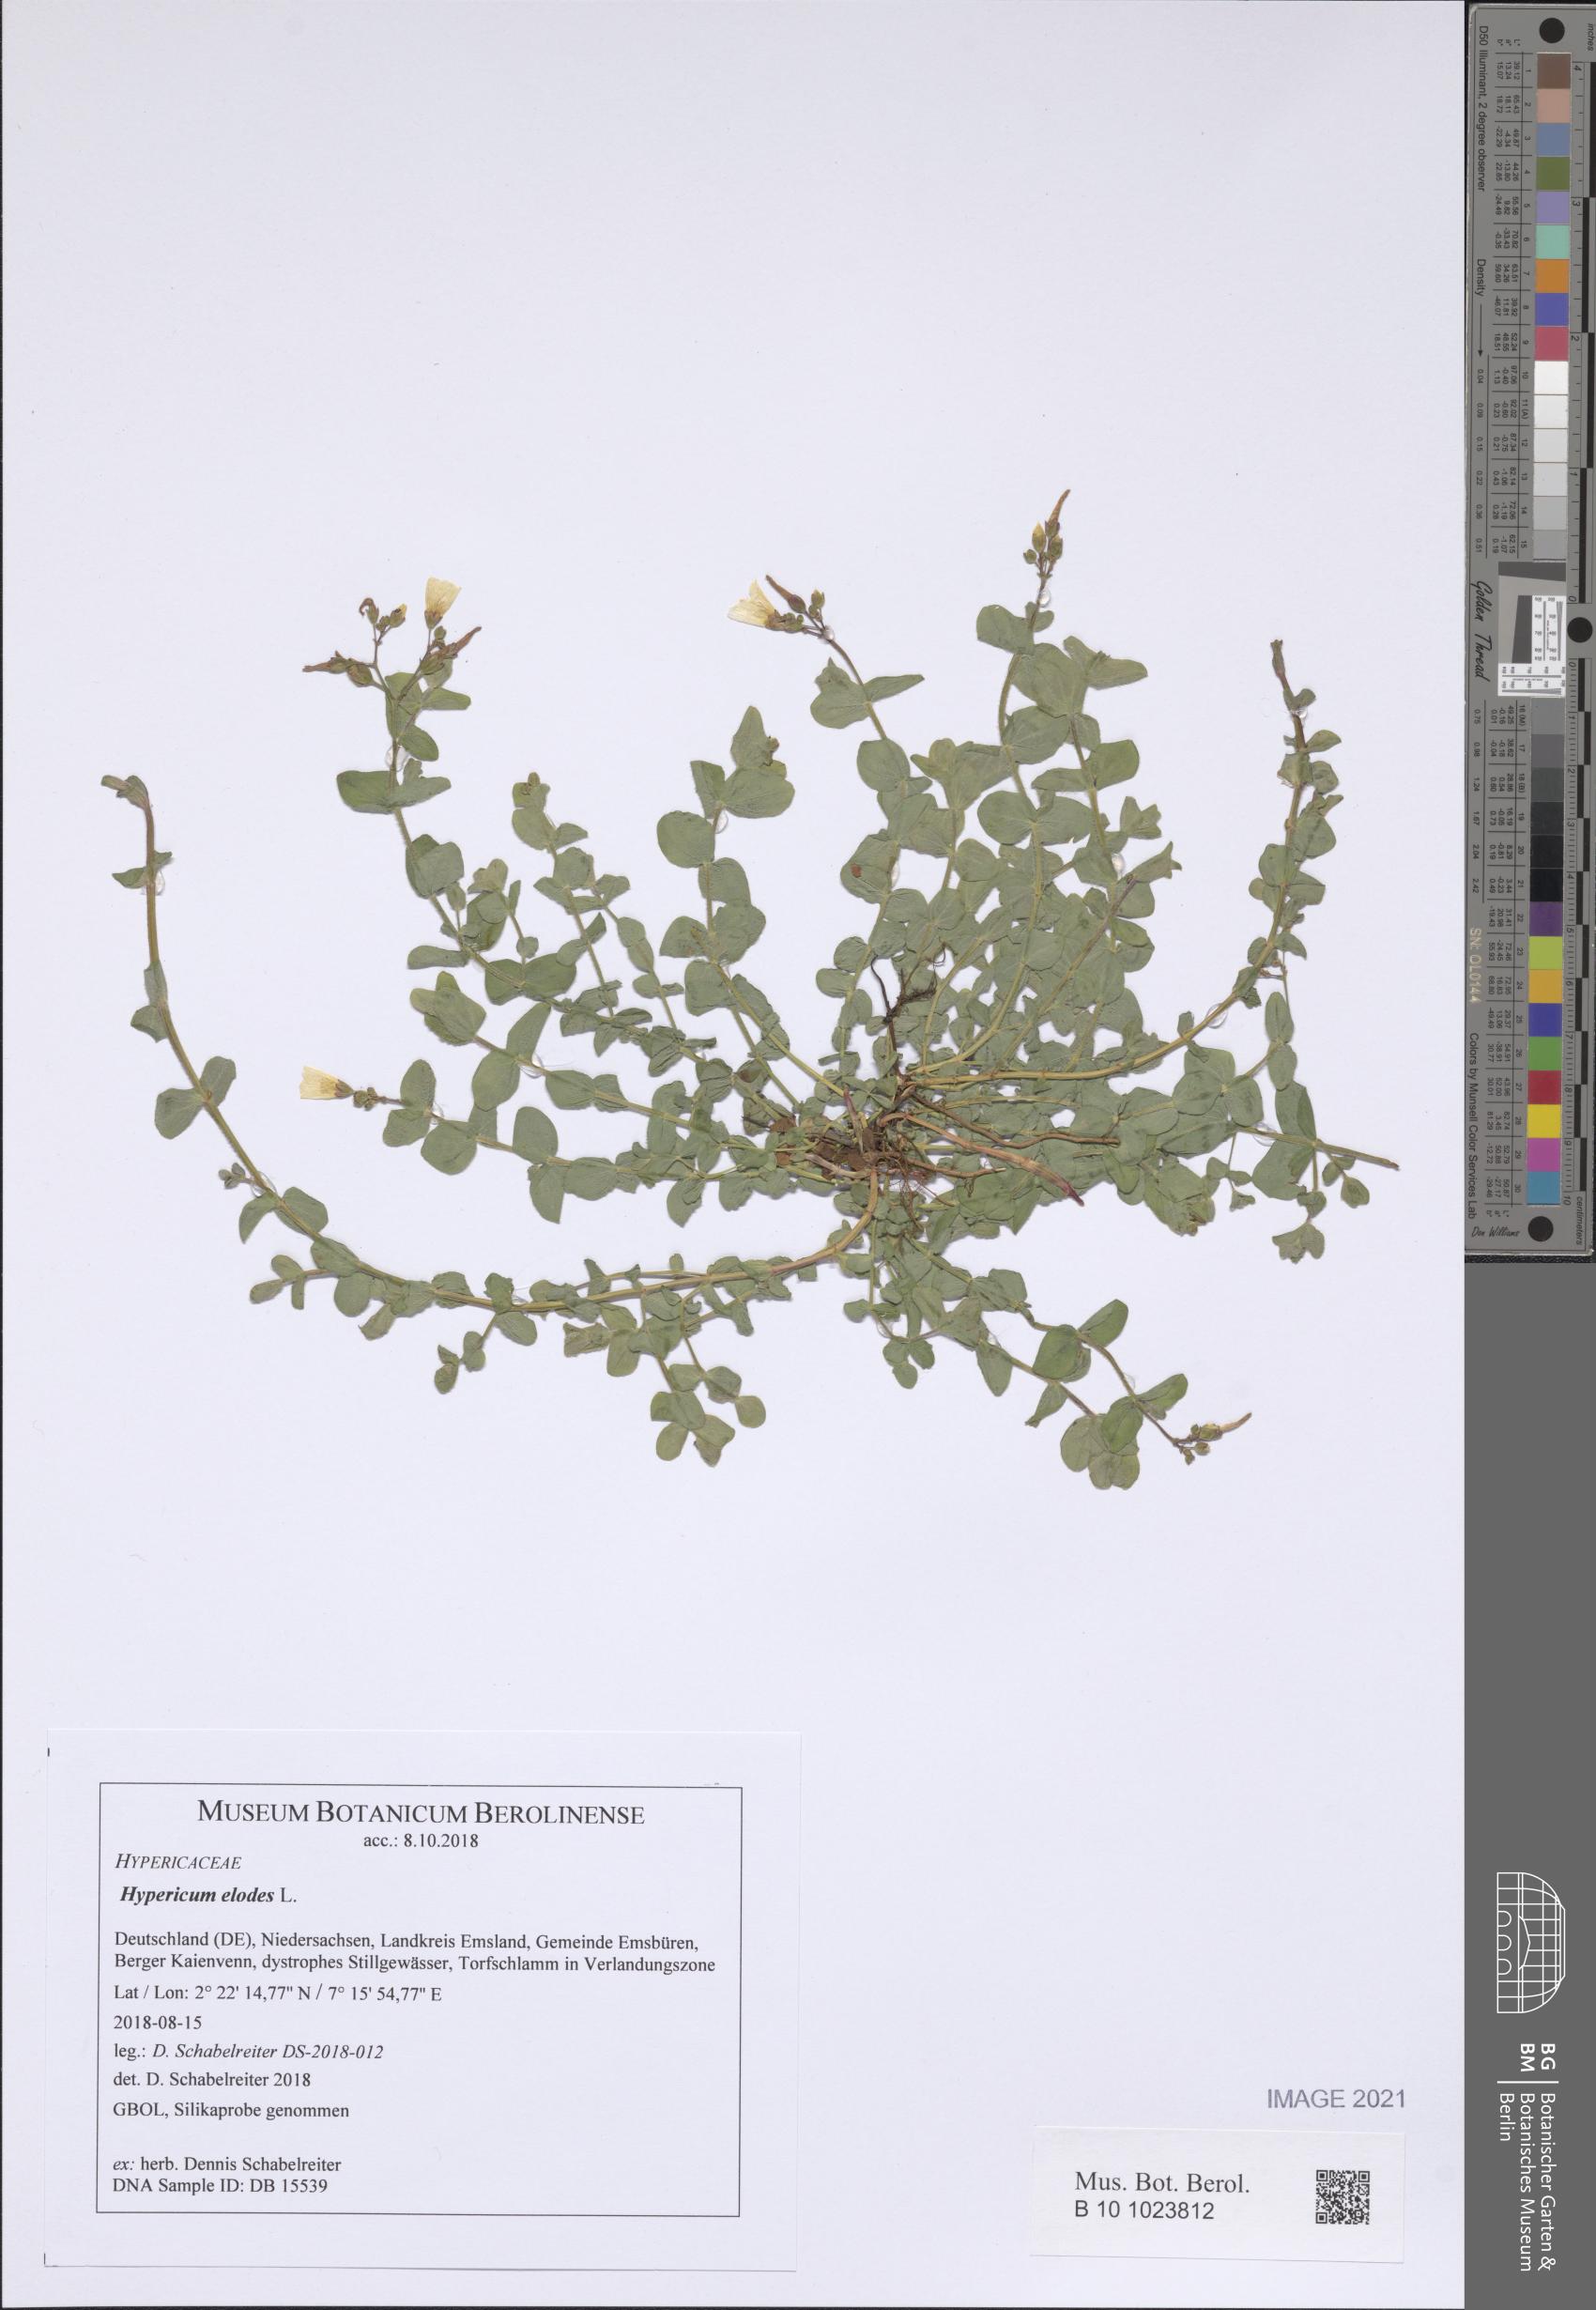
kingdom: Plantae
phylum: Tracheophyta
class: Magnoliopsida
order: Malpighiales
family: Hypericaceae
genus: Hypericum
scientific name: Hypericum elodes
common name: Marsh st. john's-wort
